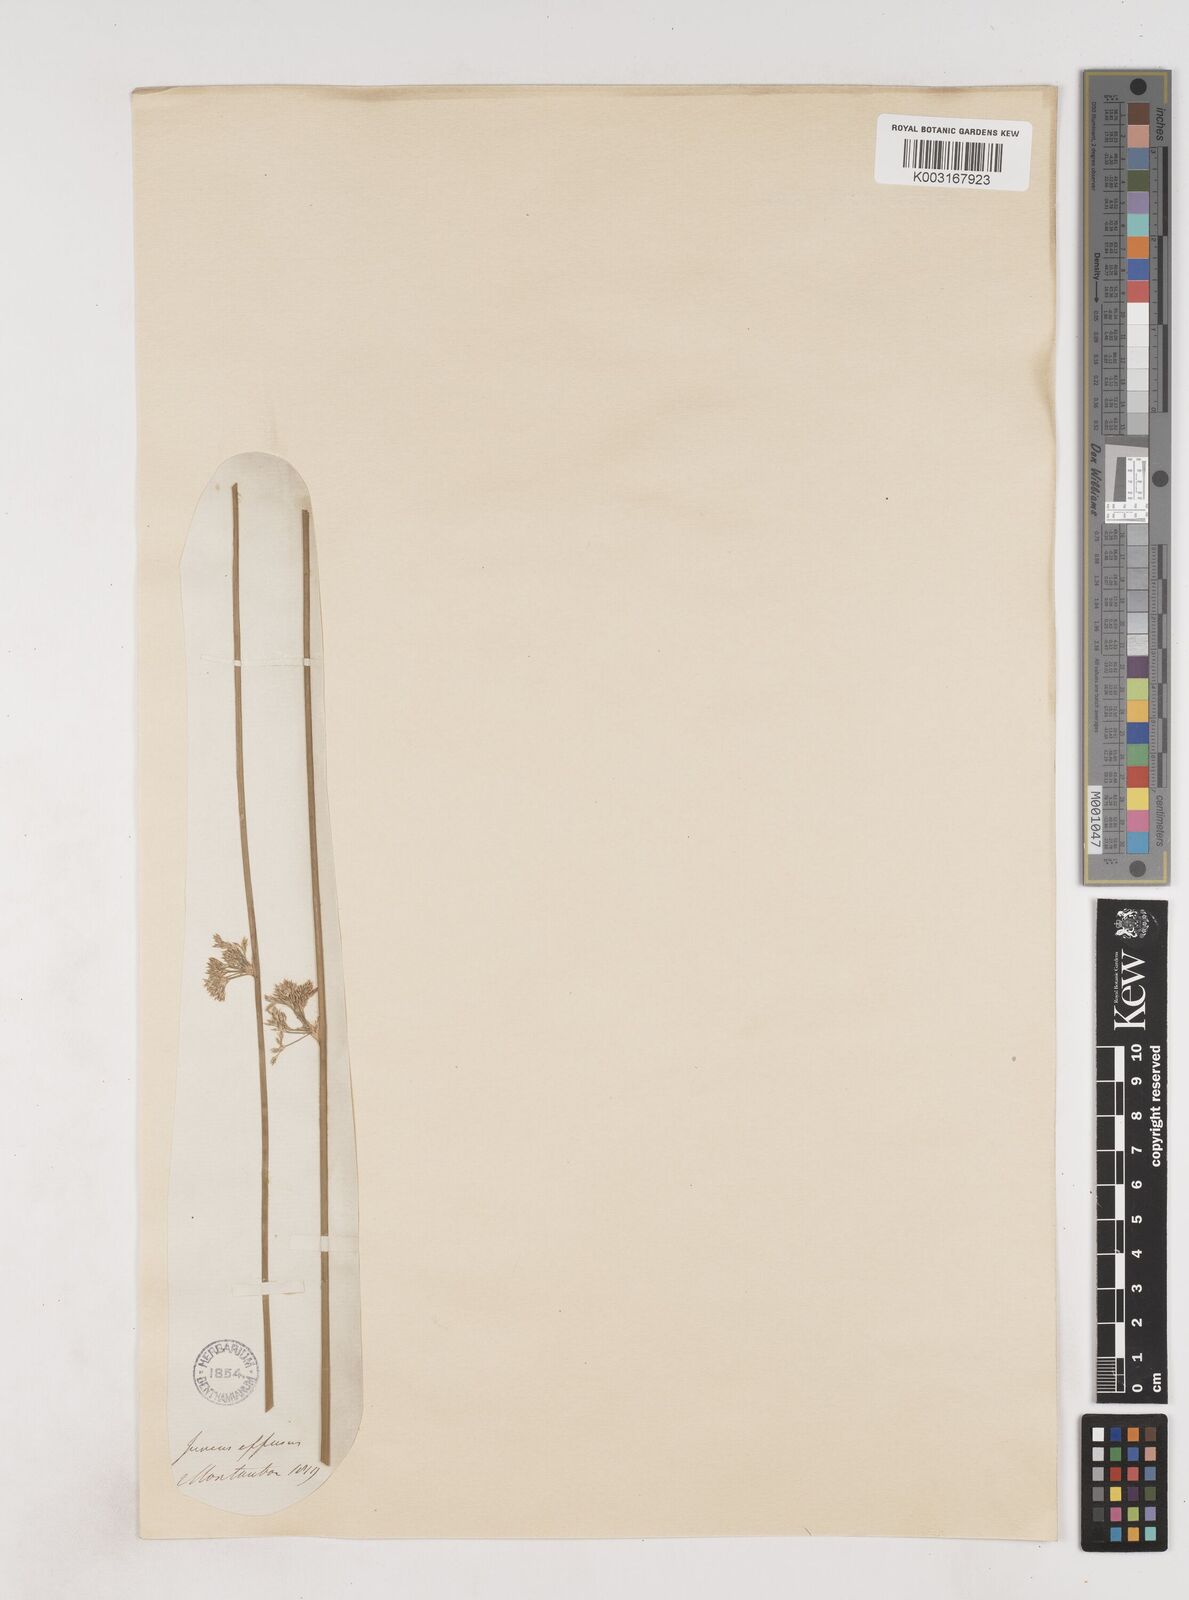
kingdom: Plantae
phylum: Tracheophyta
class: Liliopsida
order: Poales
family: Juncaceae
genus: Juncus
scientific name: Juncus effusus
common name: Soft rush
